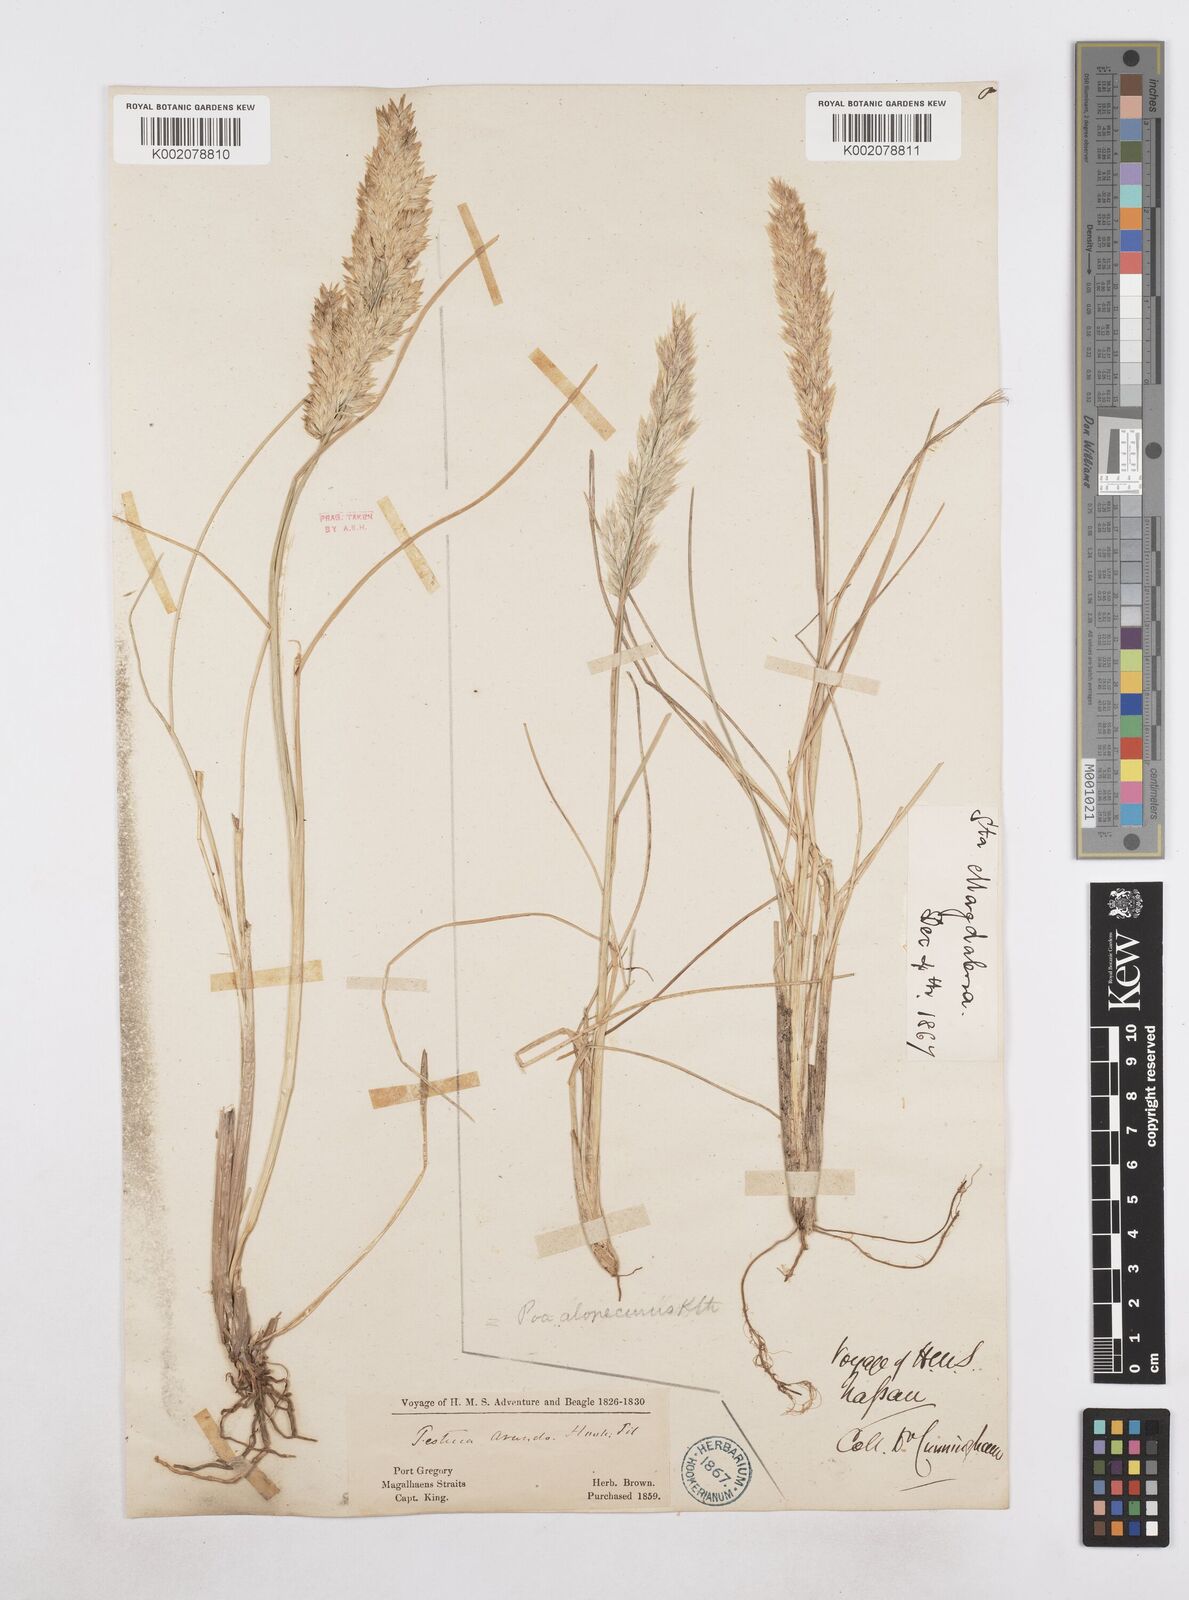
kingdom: Plantae
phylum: Tracheophyta
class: Liliopsida
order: Poales
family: Poaceae
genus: Poa
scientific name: Poa
